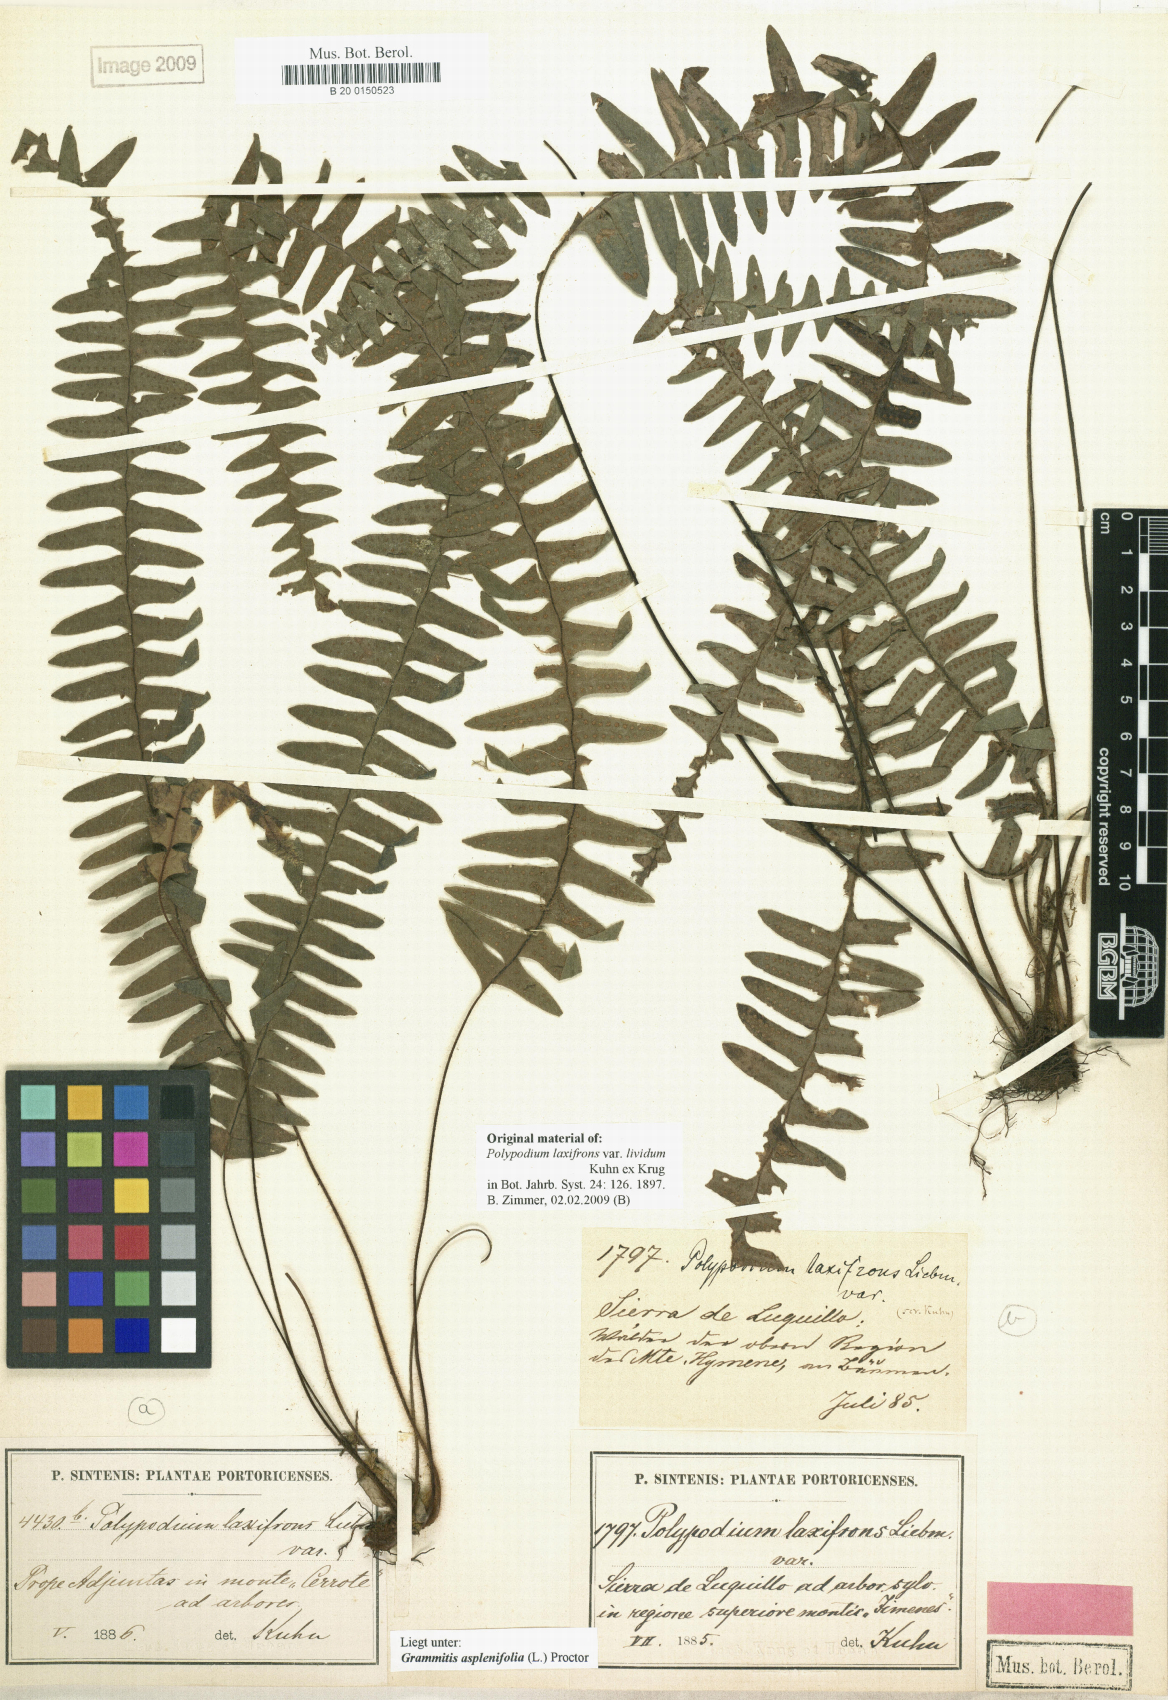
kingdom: Plantae
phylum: Tracheophyta
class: Polypodiopsida
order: Polypodiales
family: Polypodiaceae
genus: Terpsichore
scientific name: Terpsichore asplenifolia
